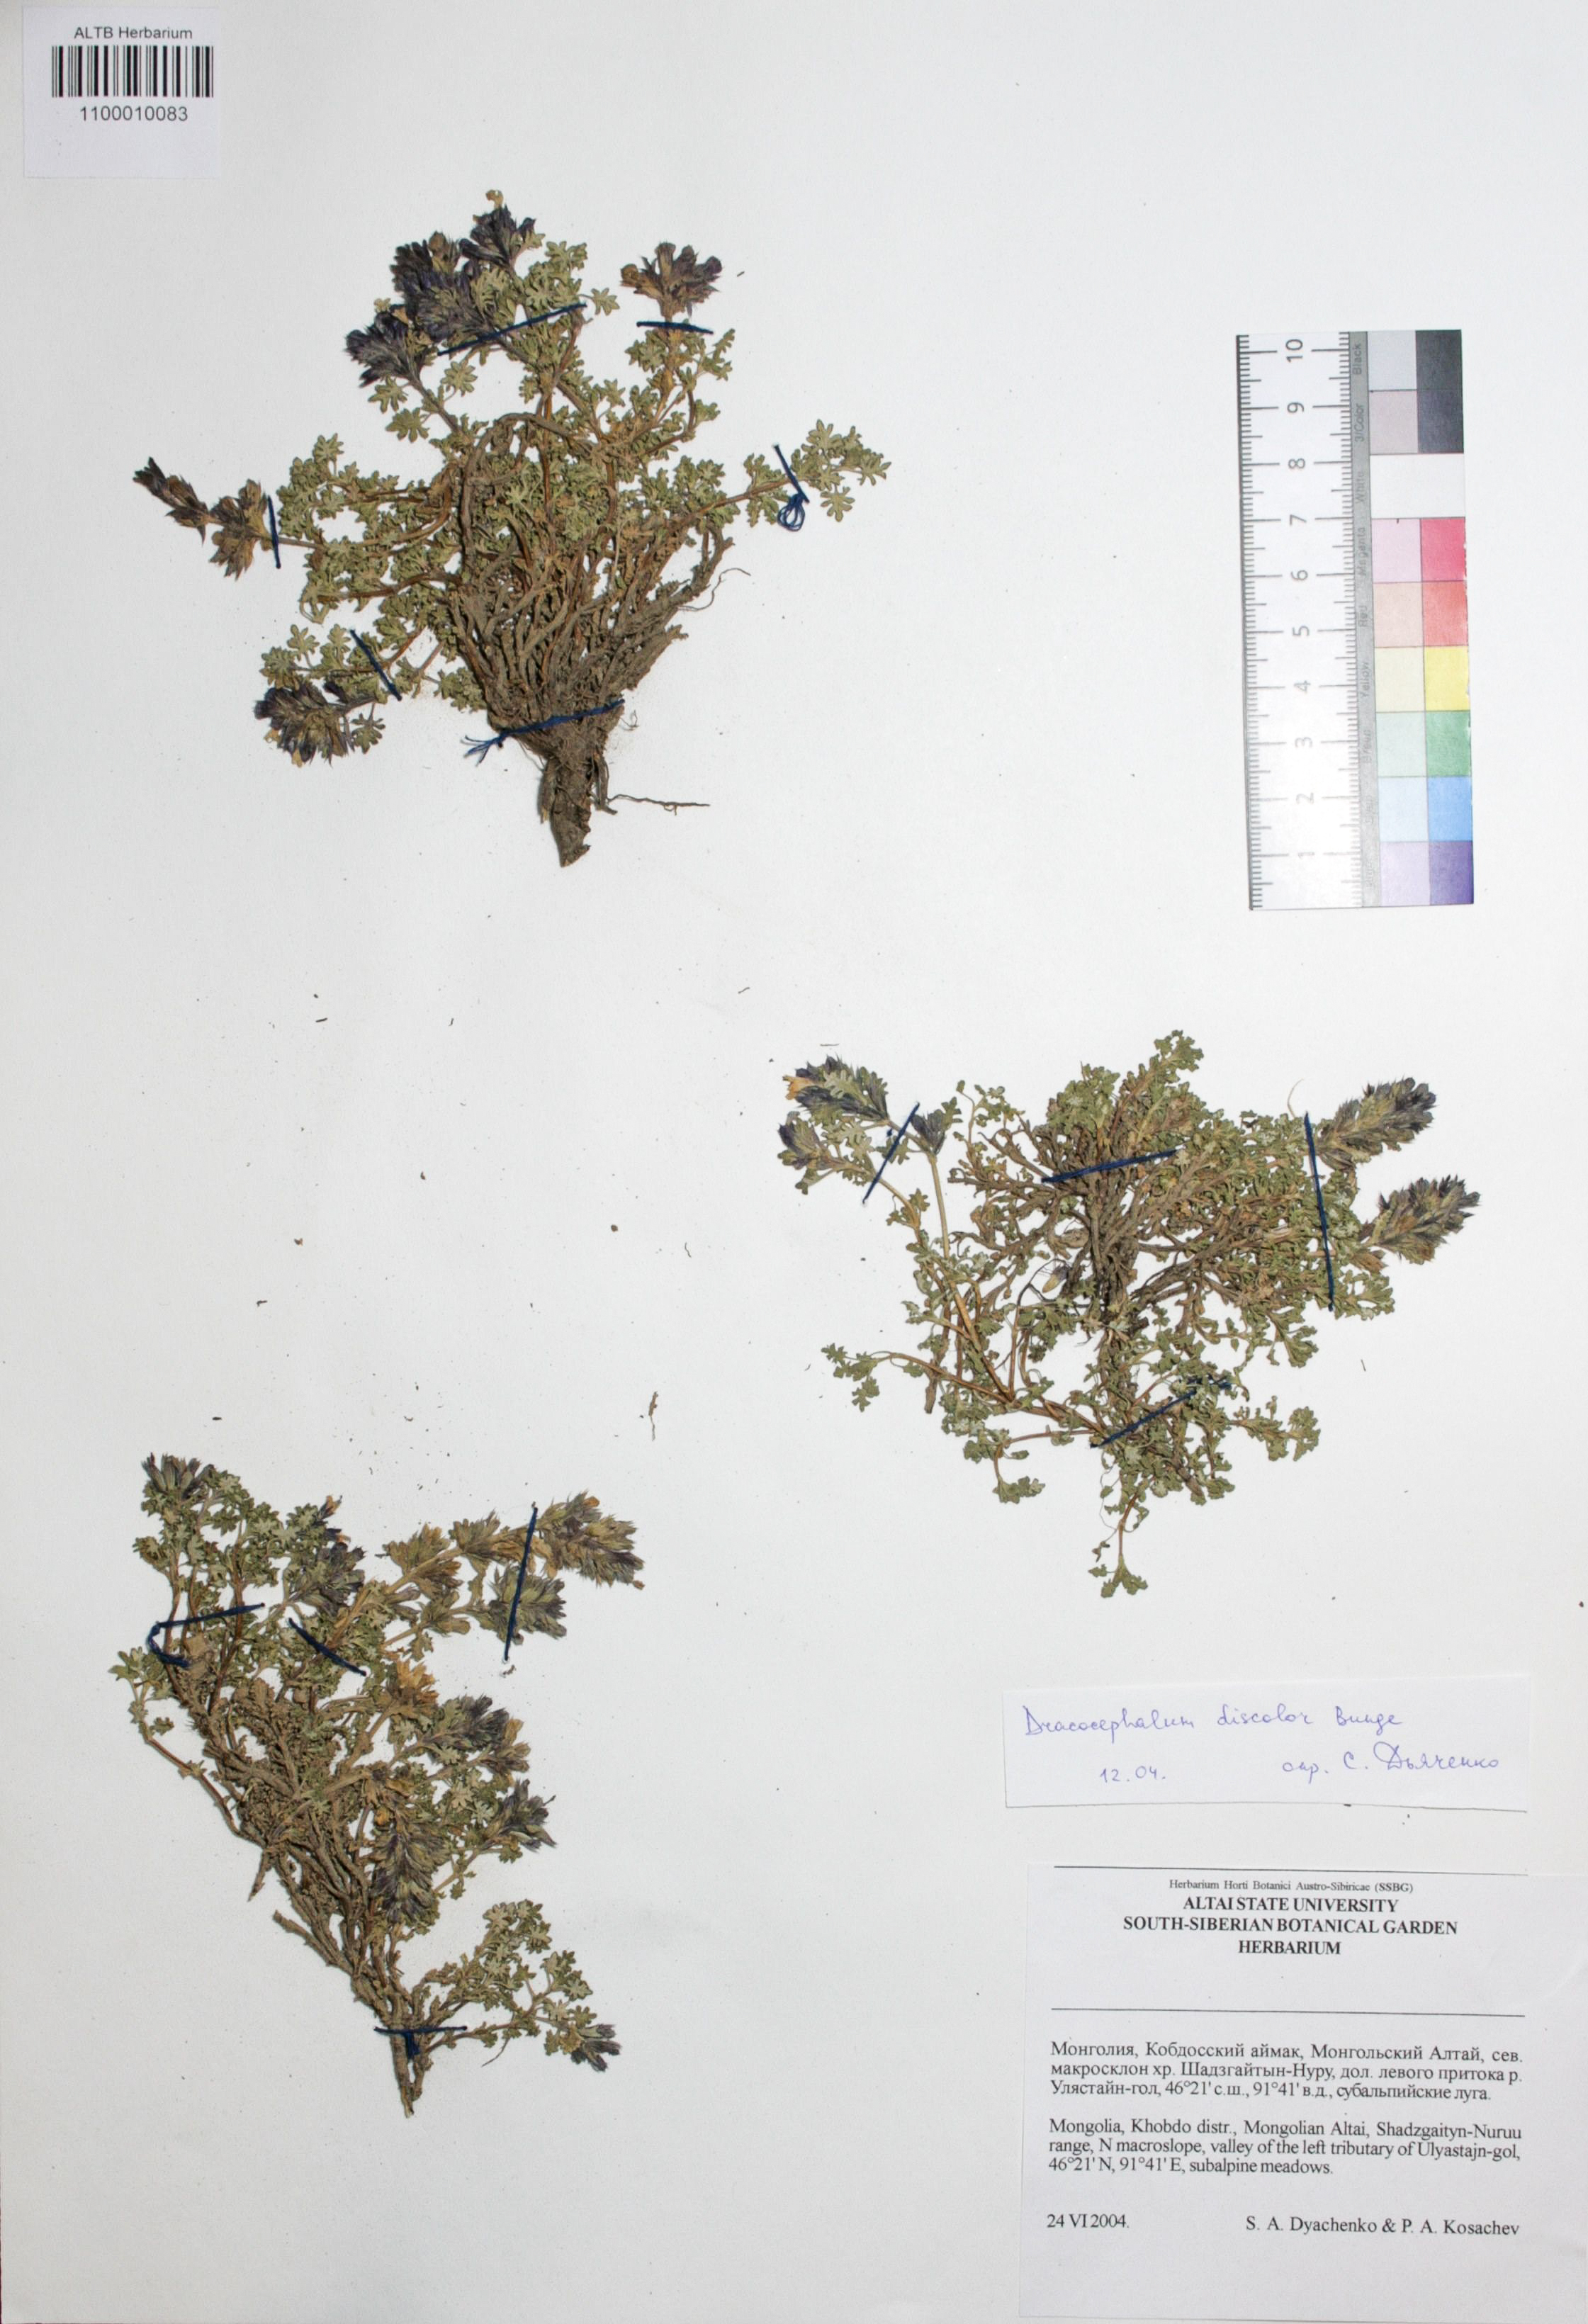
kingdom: Plantae
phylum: Tracheophyta
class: Magnoliopsida
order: Lamiales
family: Lamiaceae
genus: Dracocephalum
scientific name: Dracocephalum discolor
